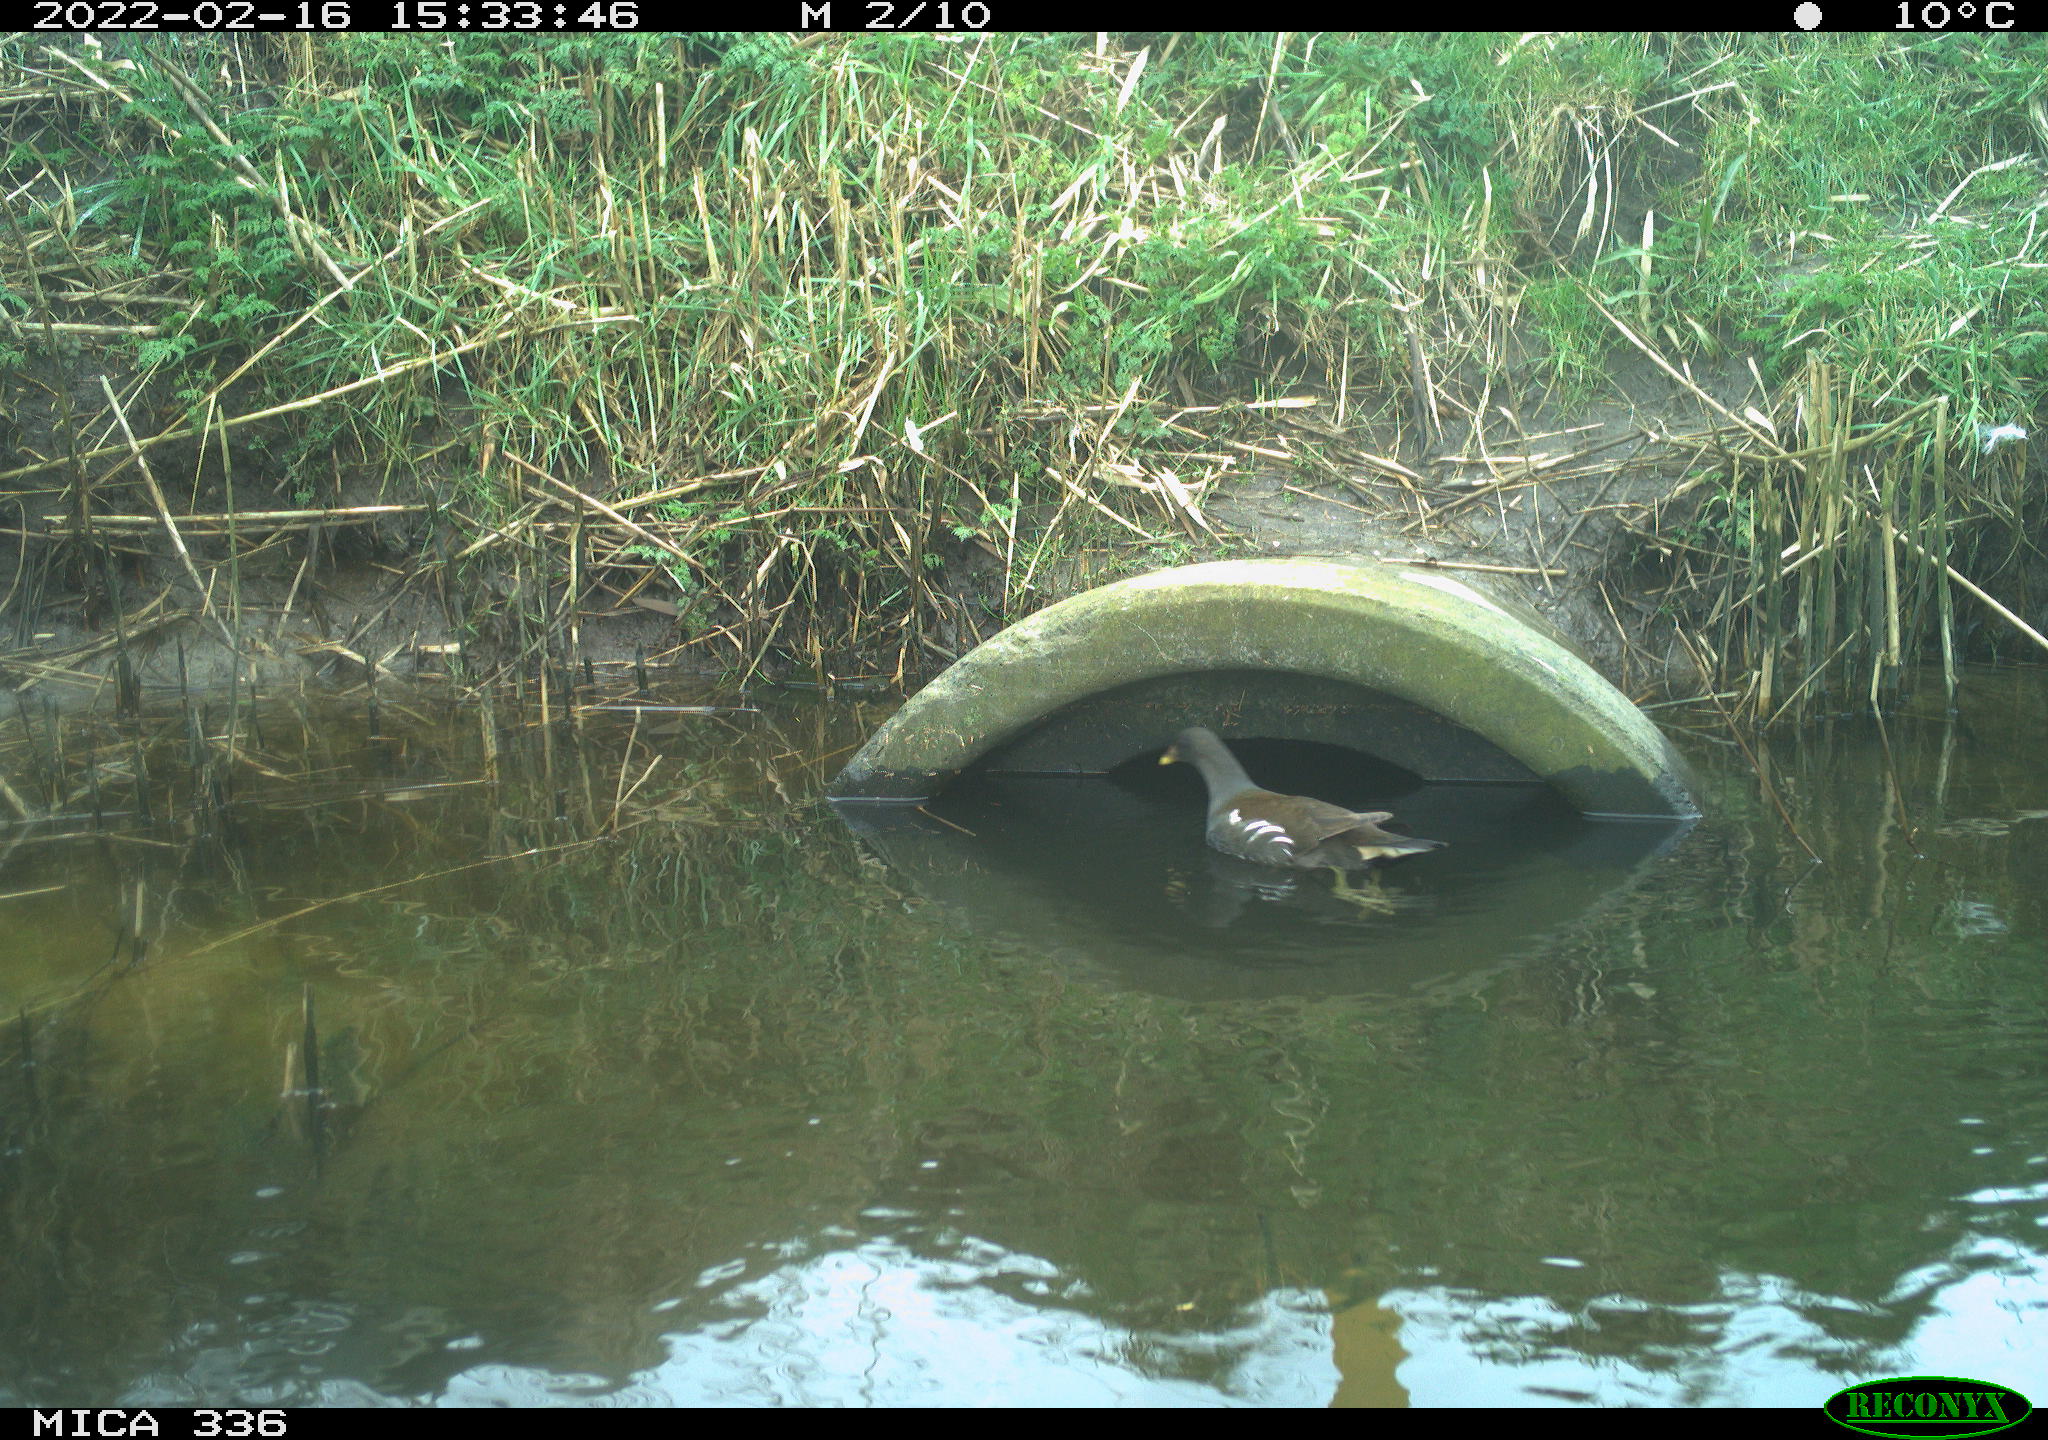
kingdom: Animalia
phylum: Chordata
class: Aves
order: Gruiformes
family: Rallidae
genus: Gallinula
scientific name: Gallinula chloropus
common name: Common moorhen
